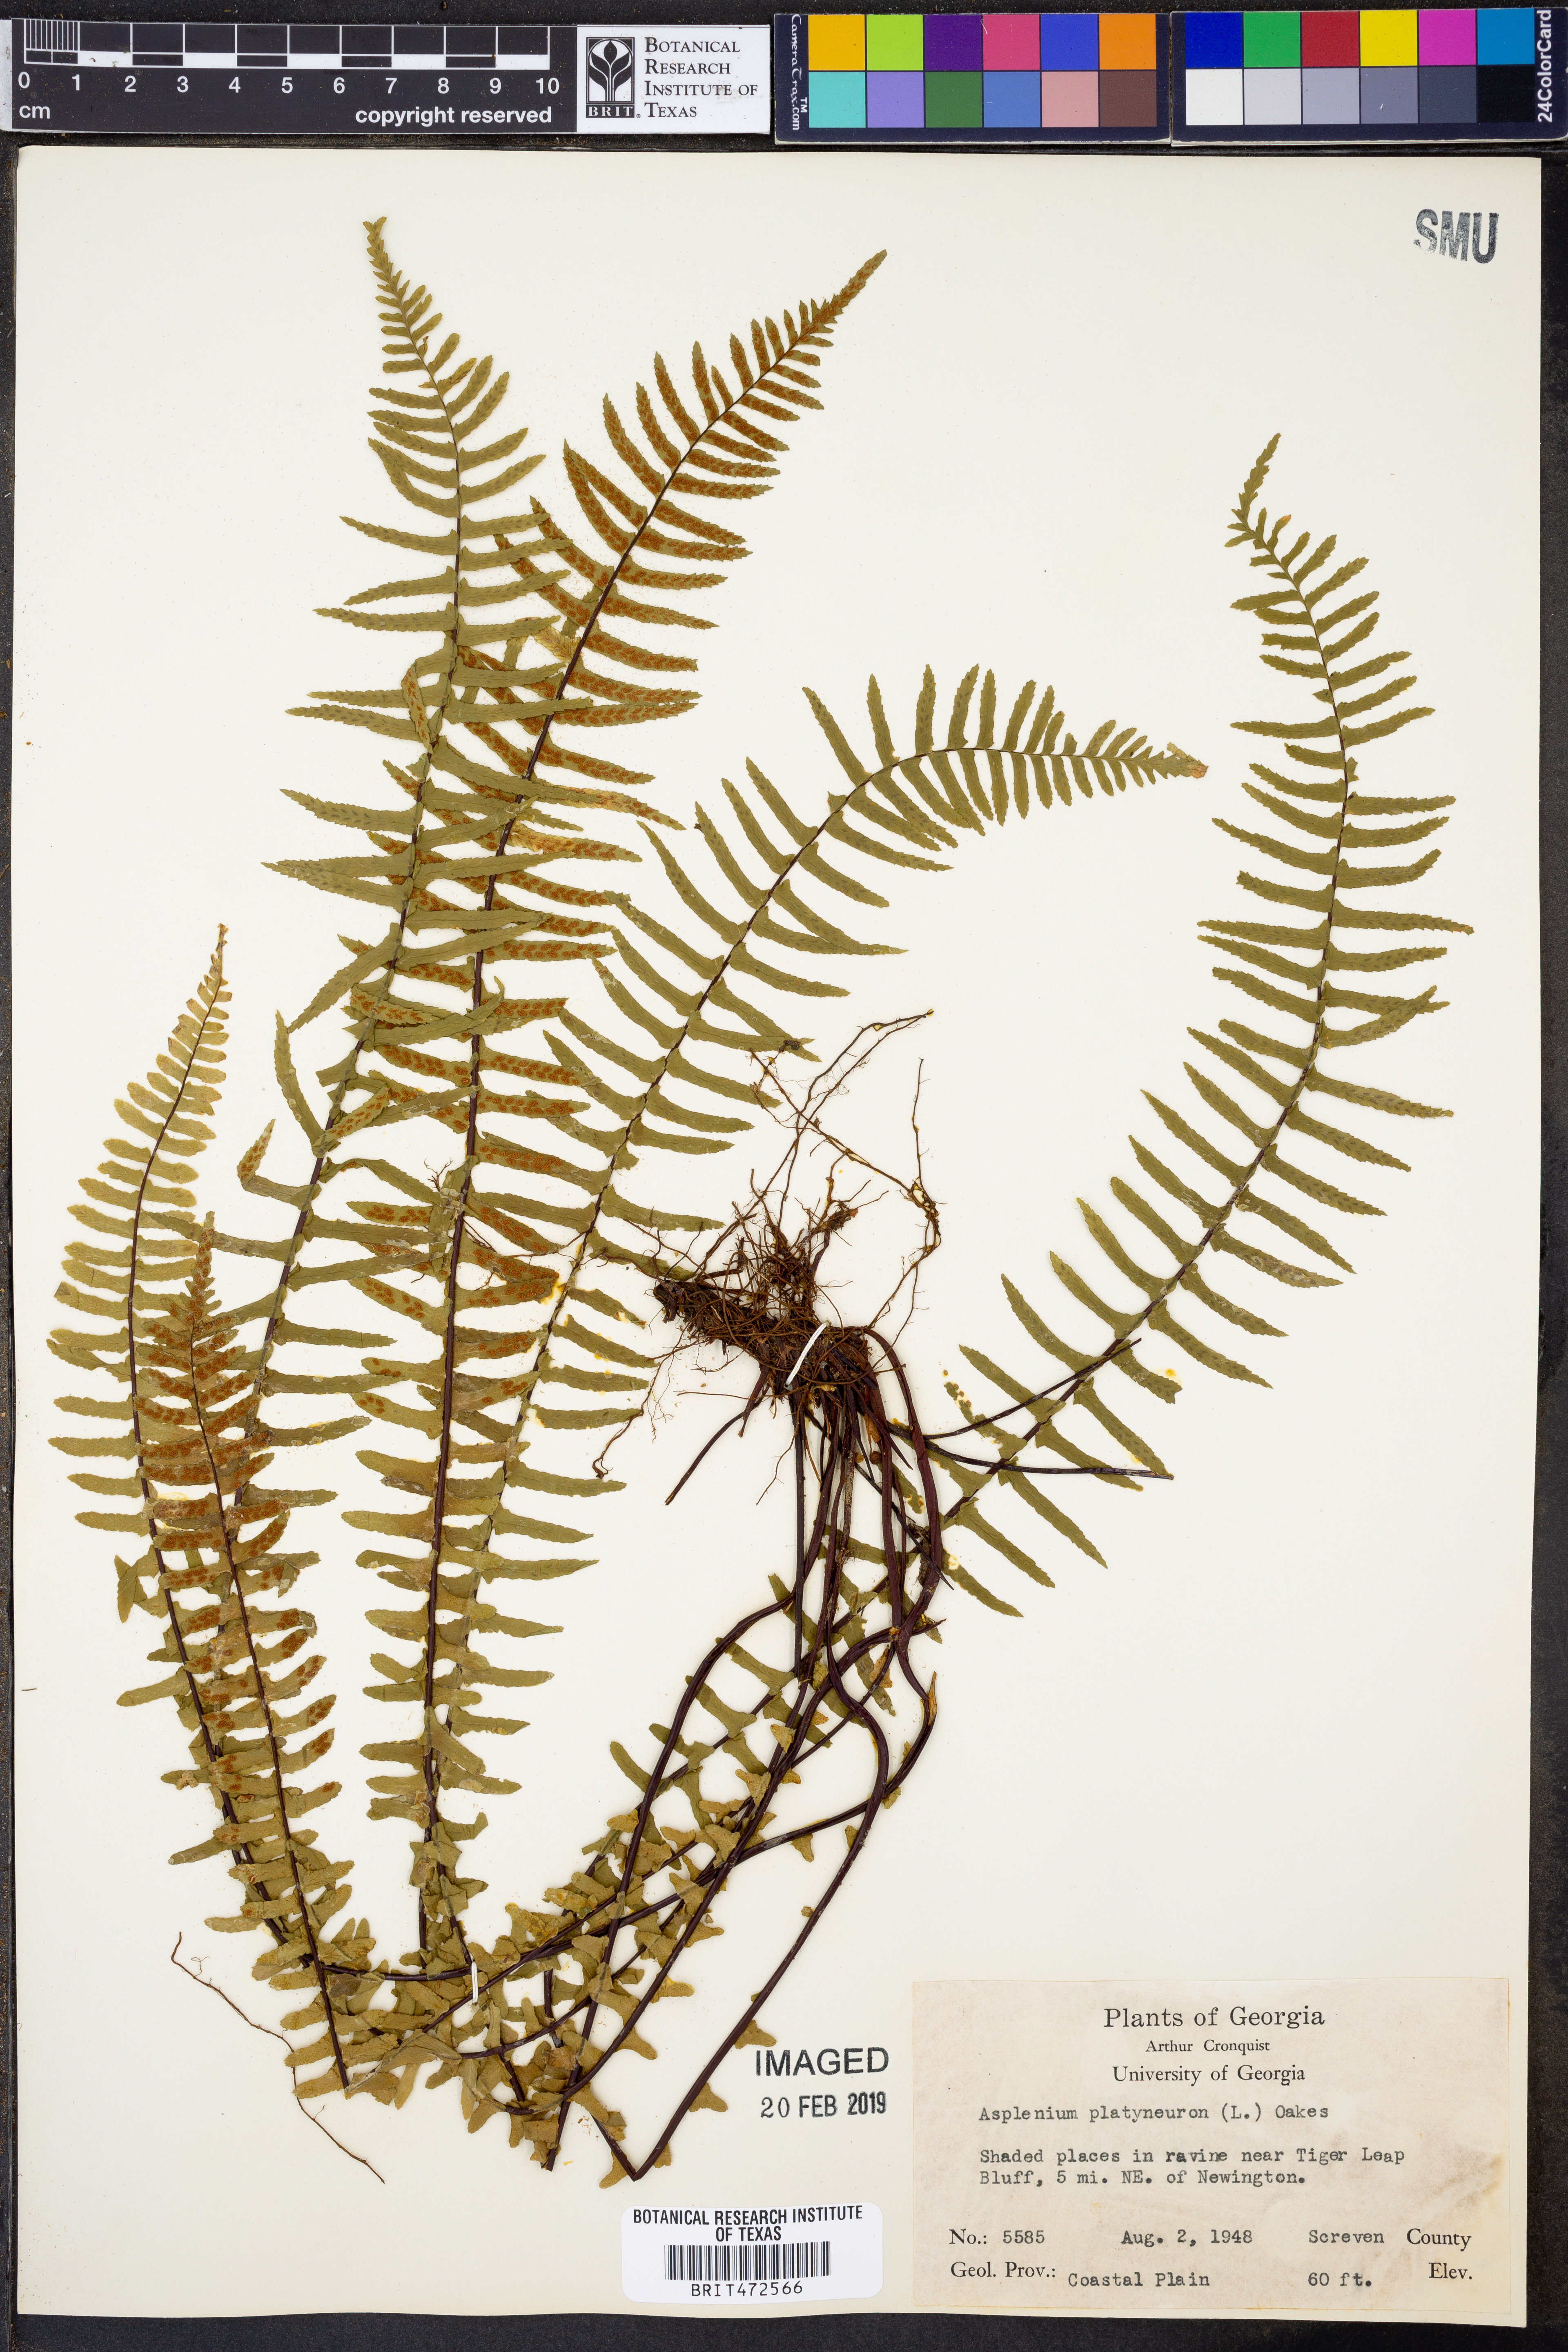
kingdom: Plantae
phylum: Tracheophyta
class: Polypodiopsida
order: Polypodiales
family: Aspleniaceae
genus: Asplenium
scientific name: Asplenium platyneuron
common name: Ebony spleenwort
